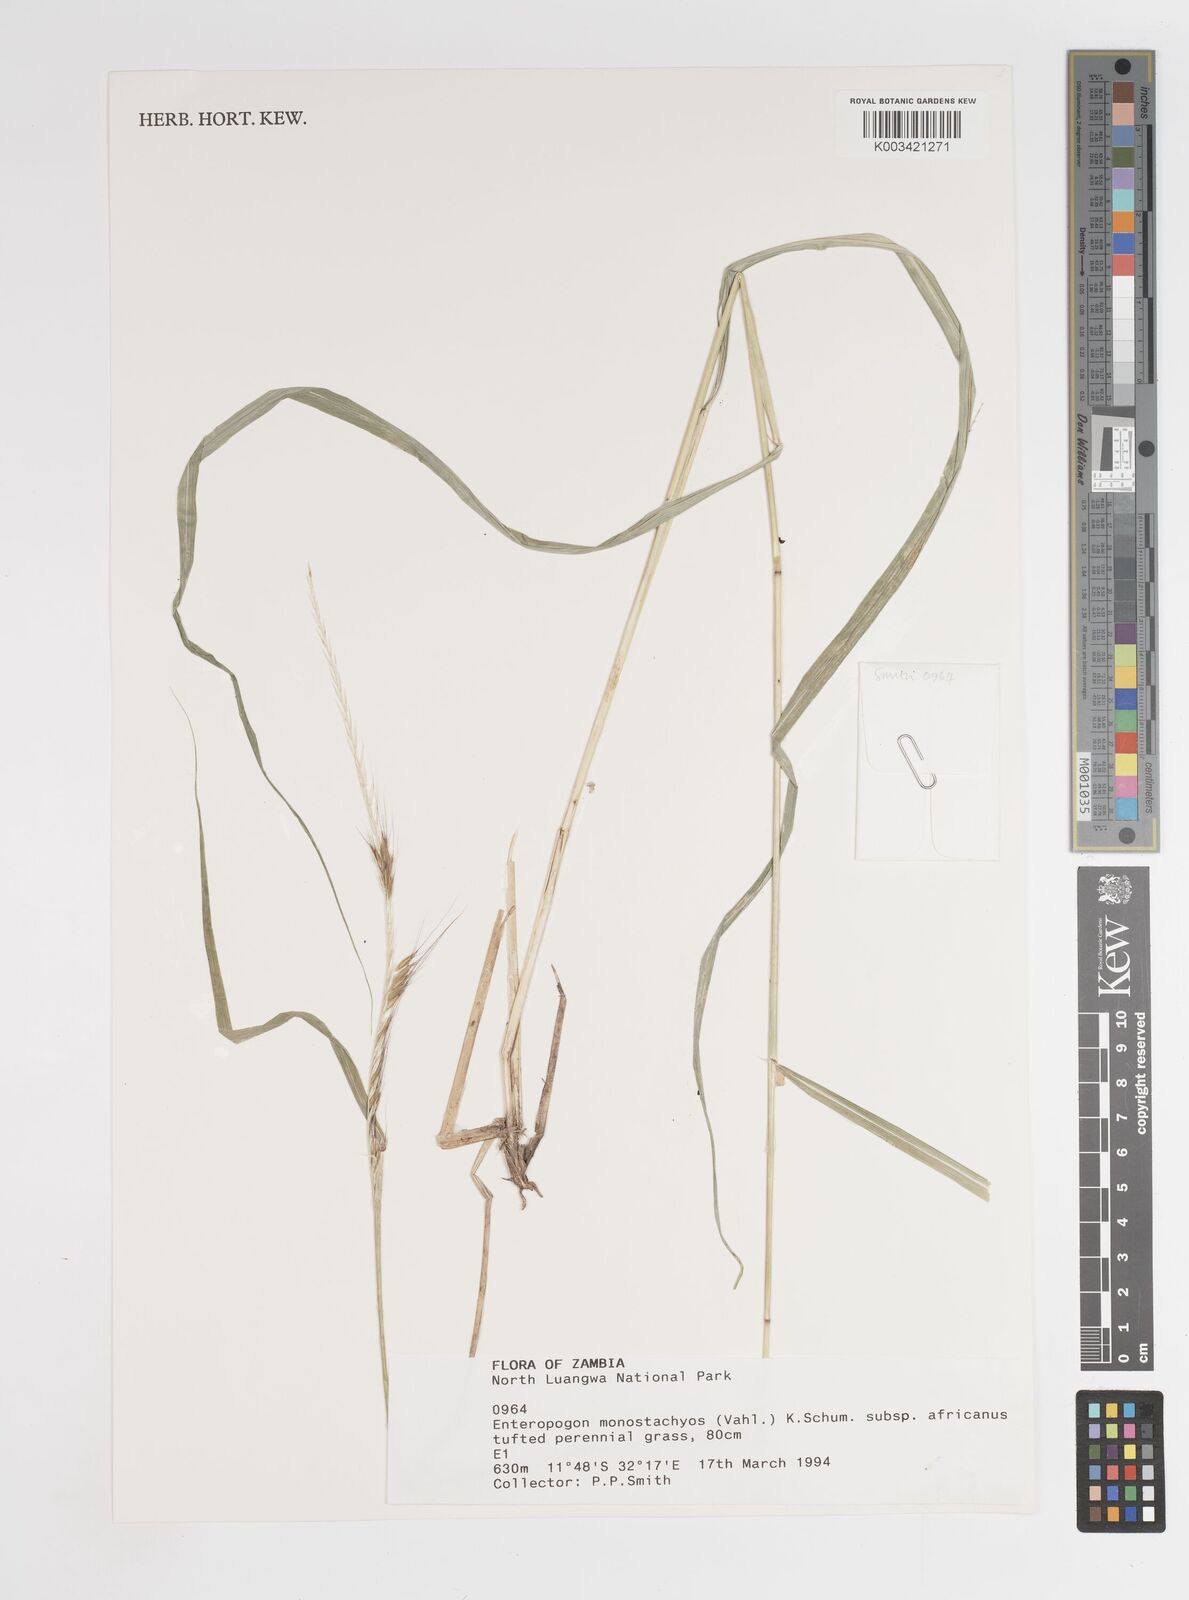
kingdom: Plantae
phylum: Tracheophyta
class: Liliopsida
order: Poales
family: Poaceae
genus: Enteropogon
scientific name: Enteropogon monostachyos
